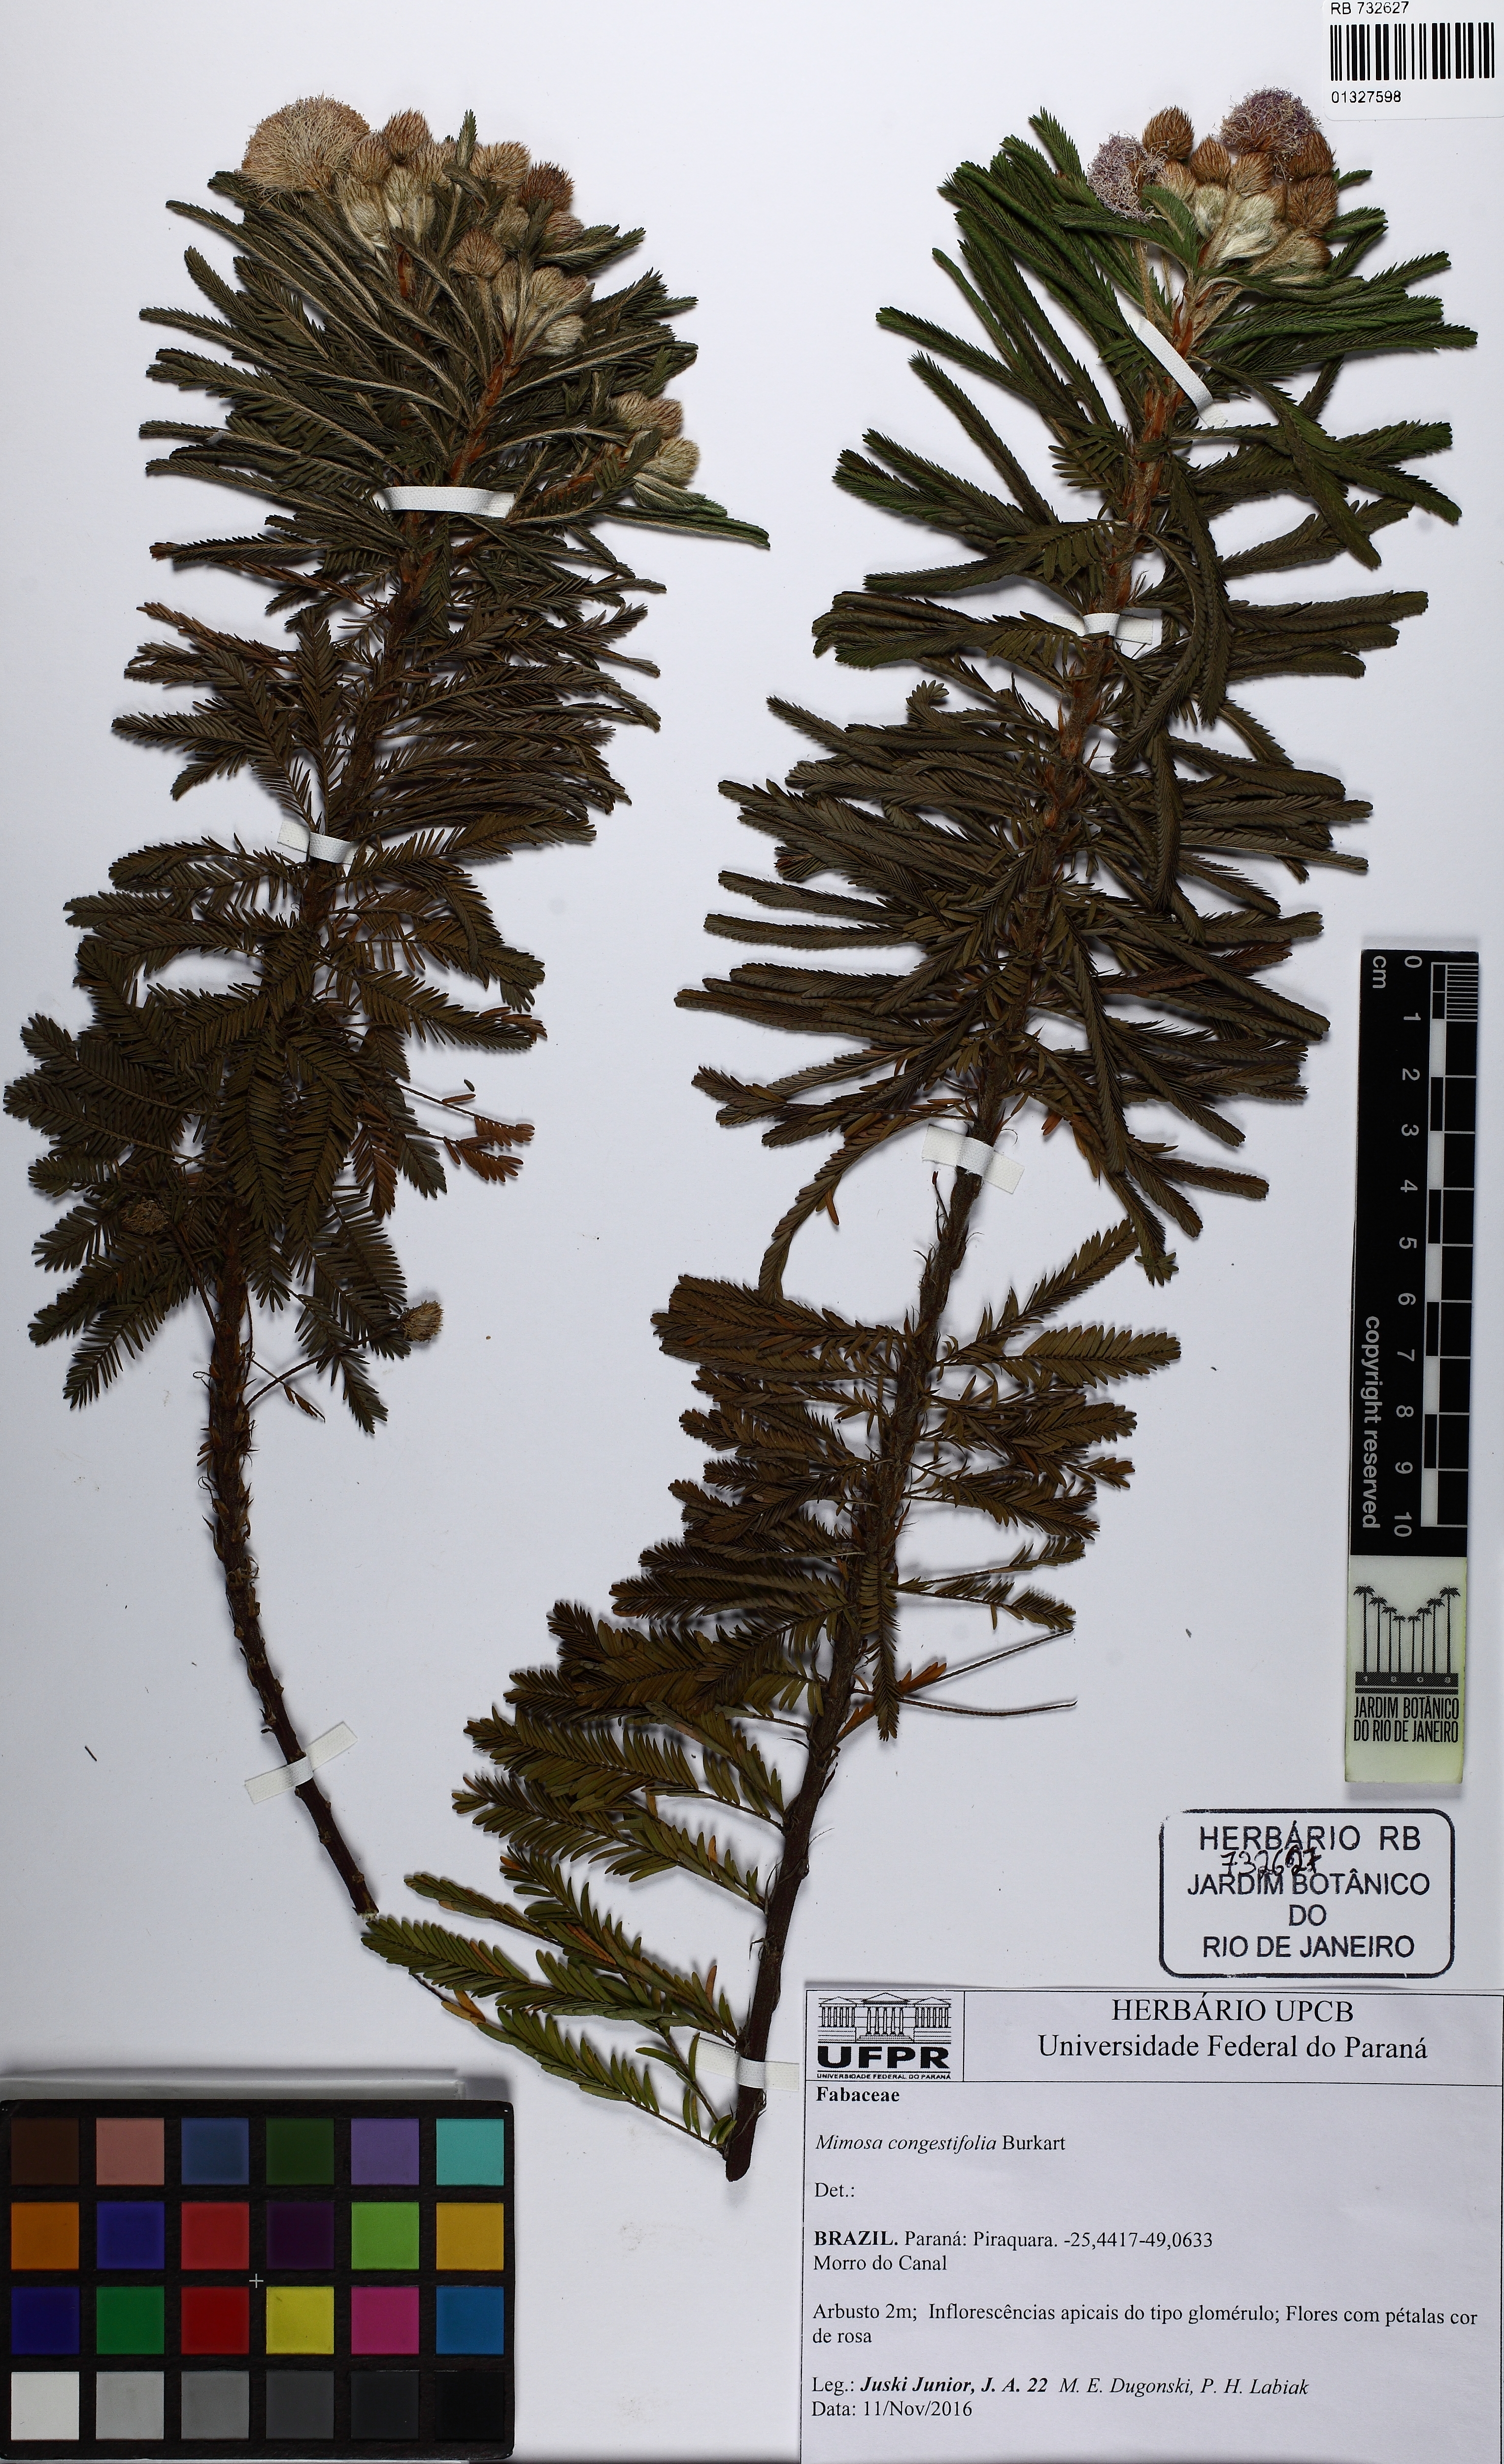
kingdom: Plantae
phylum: Tracheophyta
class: Magnoliopsida
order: Fabales
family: Fabaceae
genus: Mimosa
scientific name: Mimosa congestifolia
